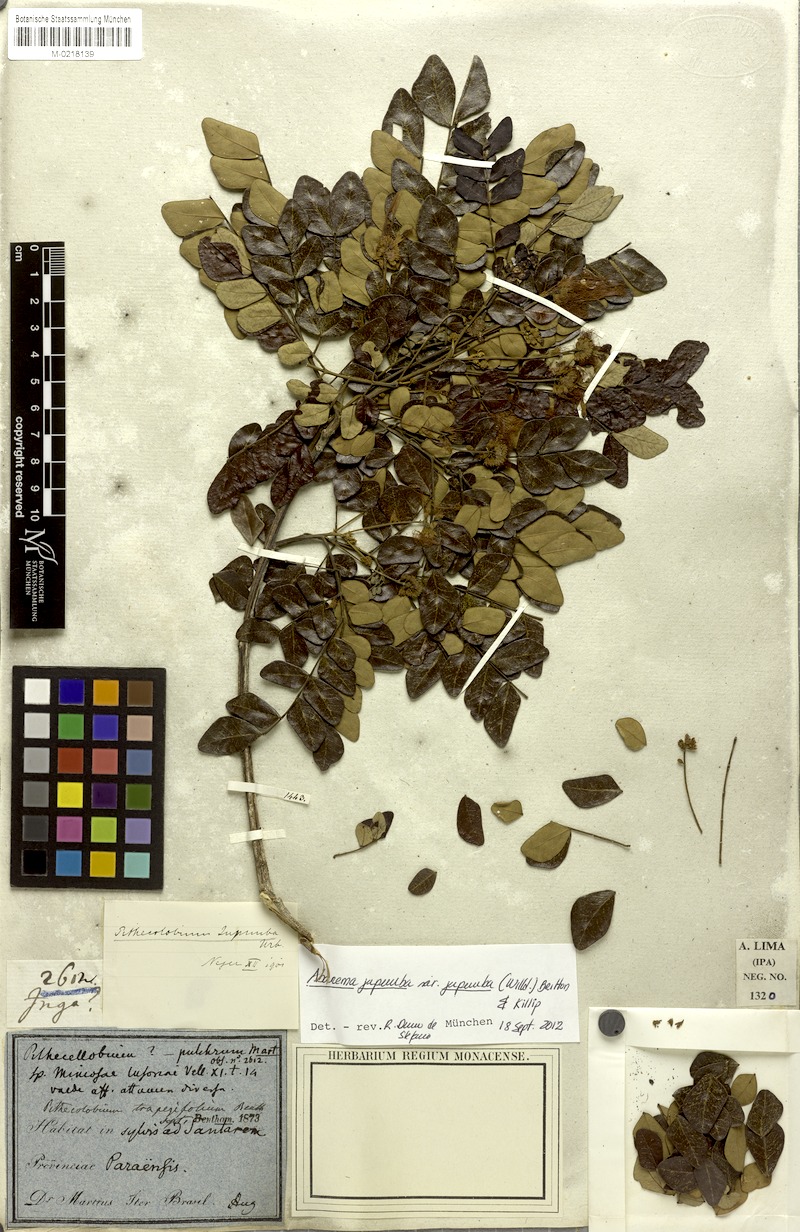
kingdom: Plantae
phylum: Tracheophyta
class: Magnoliopsida
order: Fabales
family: Fabaceae
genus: Jupunba
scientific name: Jupunba trapezifolia
